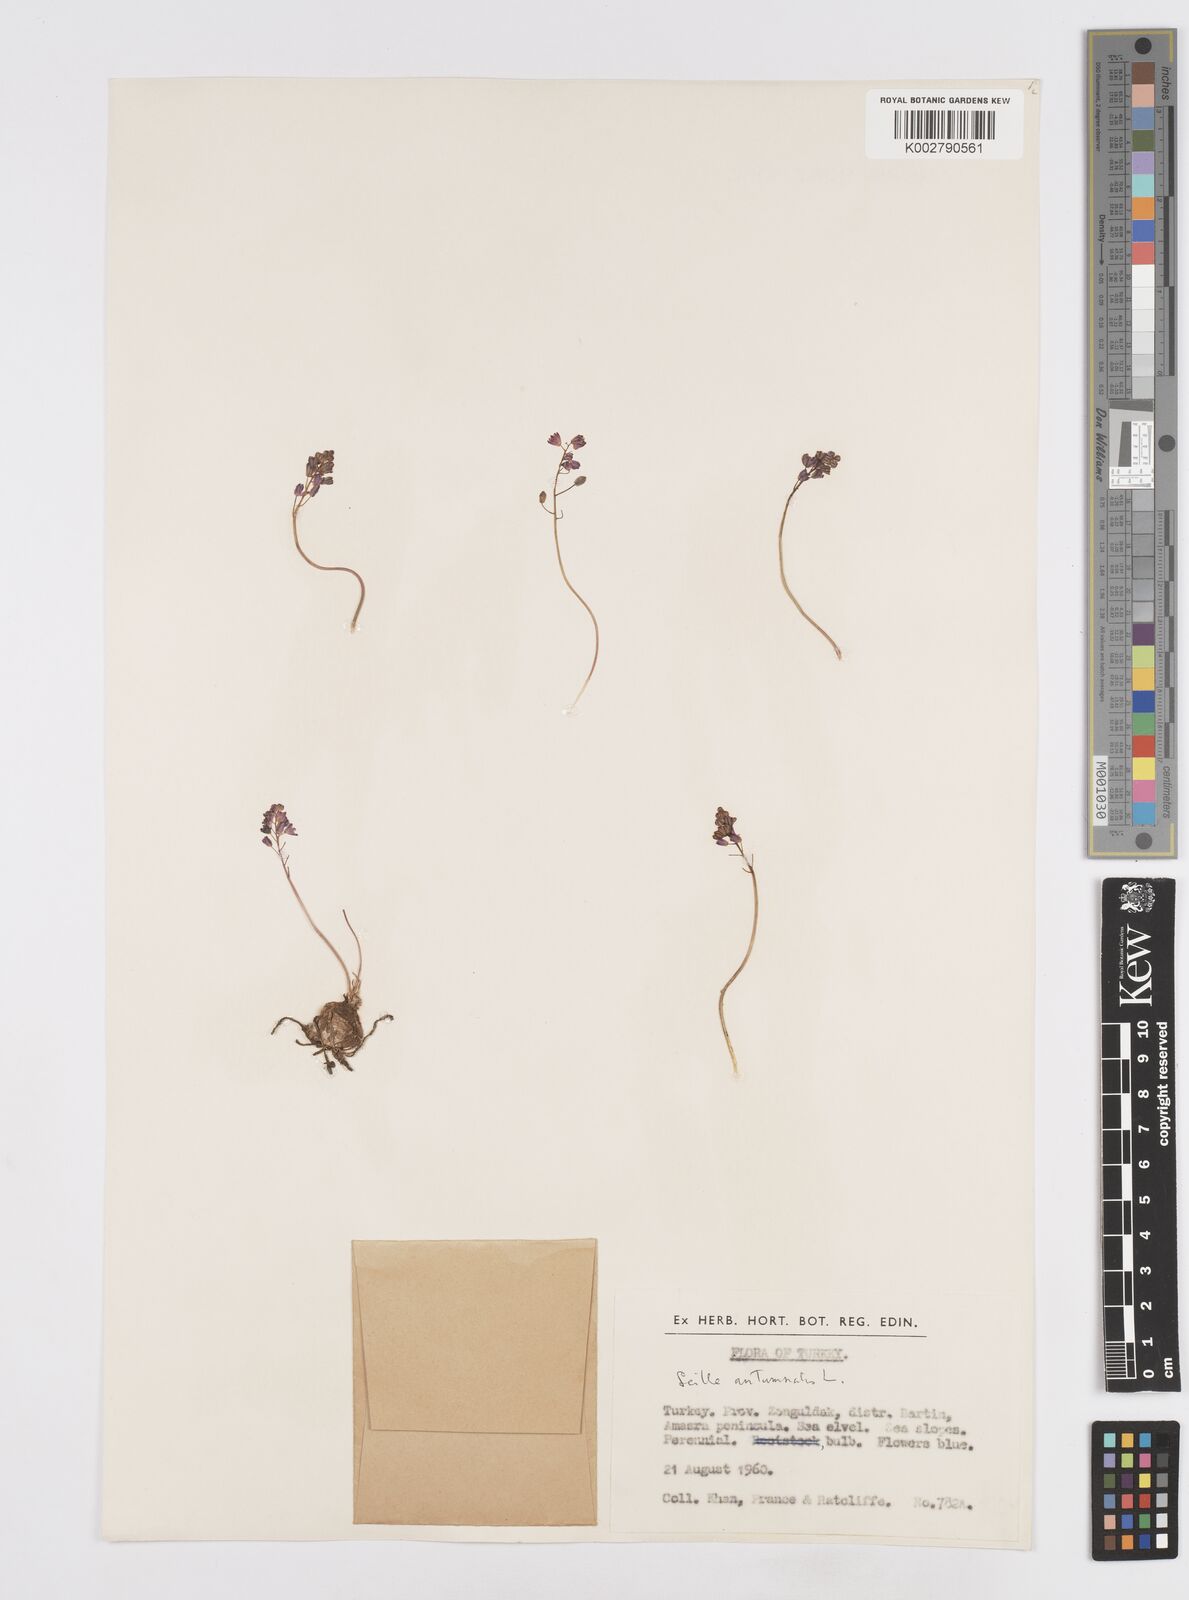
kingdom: Plantae
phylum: Tracheophyta
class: Liliopsida
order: Asparagales
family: Asparagaceae
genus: Prospero
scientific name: Prospero autumnale
